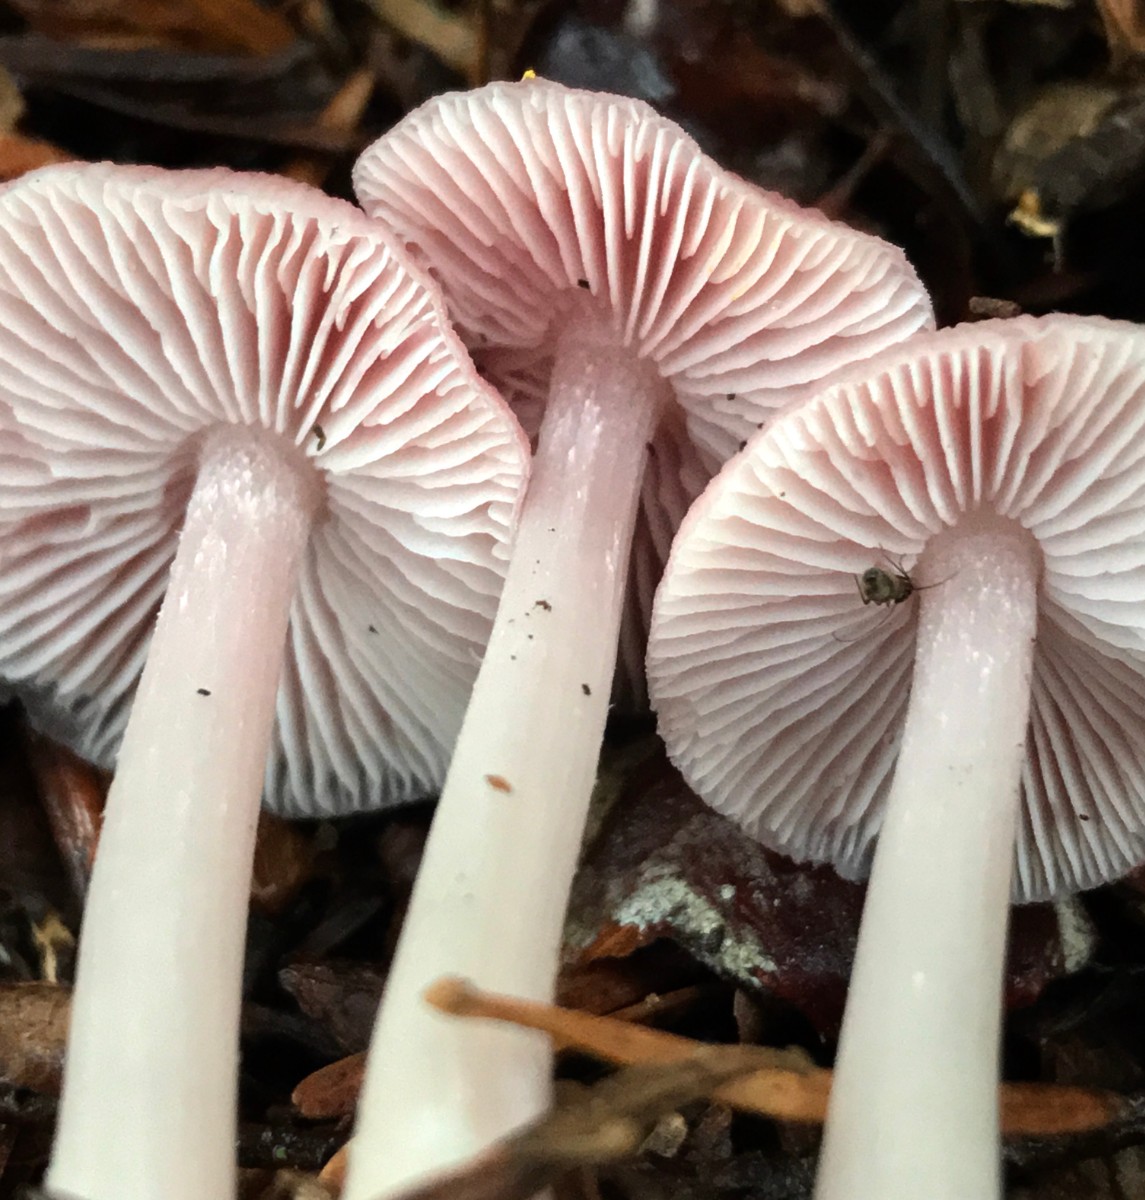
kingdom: Fungi
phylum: Basidiomycota
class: Agaricomycetes
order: Agaricales
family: Mycenaceae
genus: Mycena
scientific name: Mycena rosea
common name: rosa huesvamp
